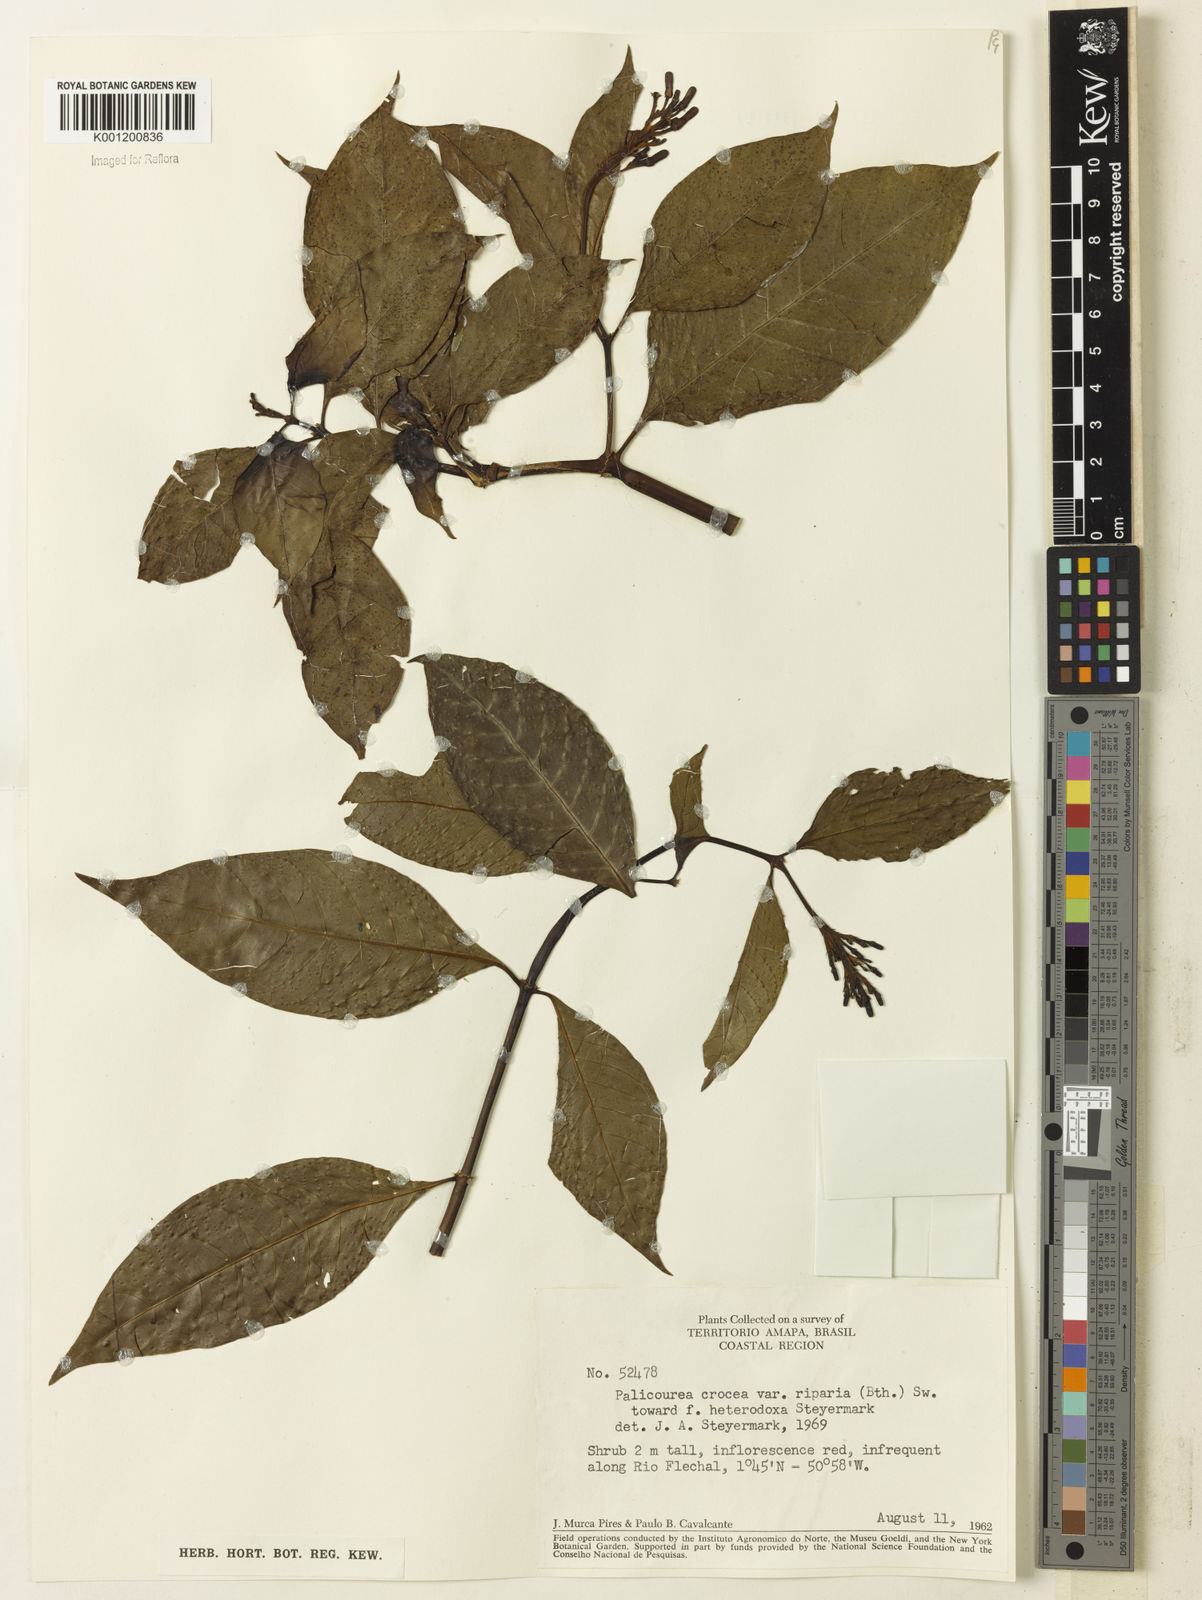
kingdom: Plantae
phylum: Tracheophyta
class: Magnoliopsida
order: Gentianales
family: Rubiaceae
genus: Palicourea
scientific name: Palicourea croceoides
